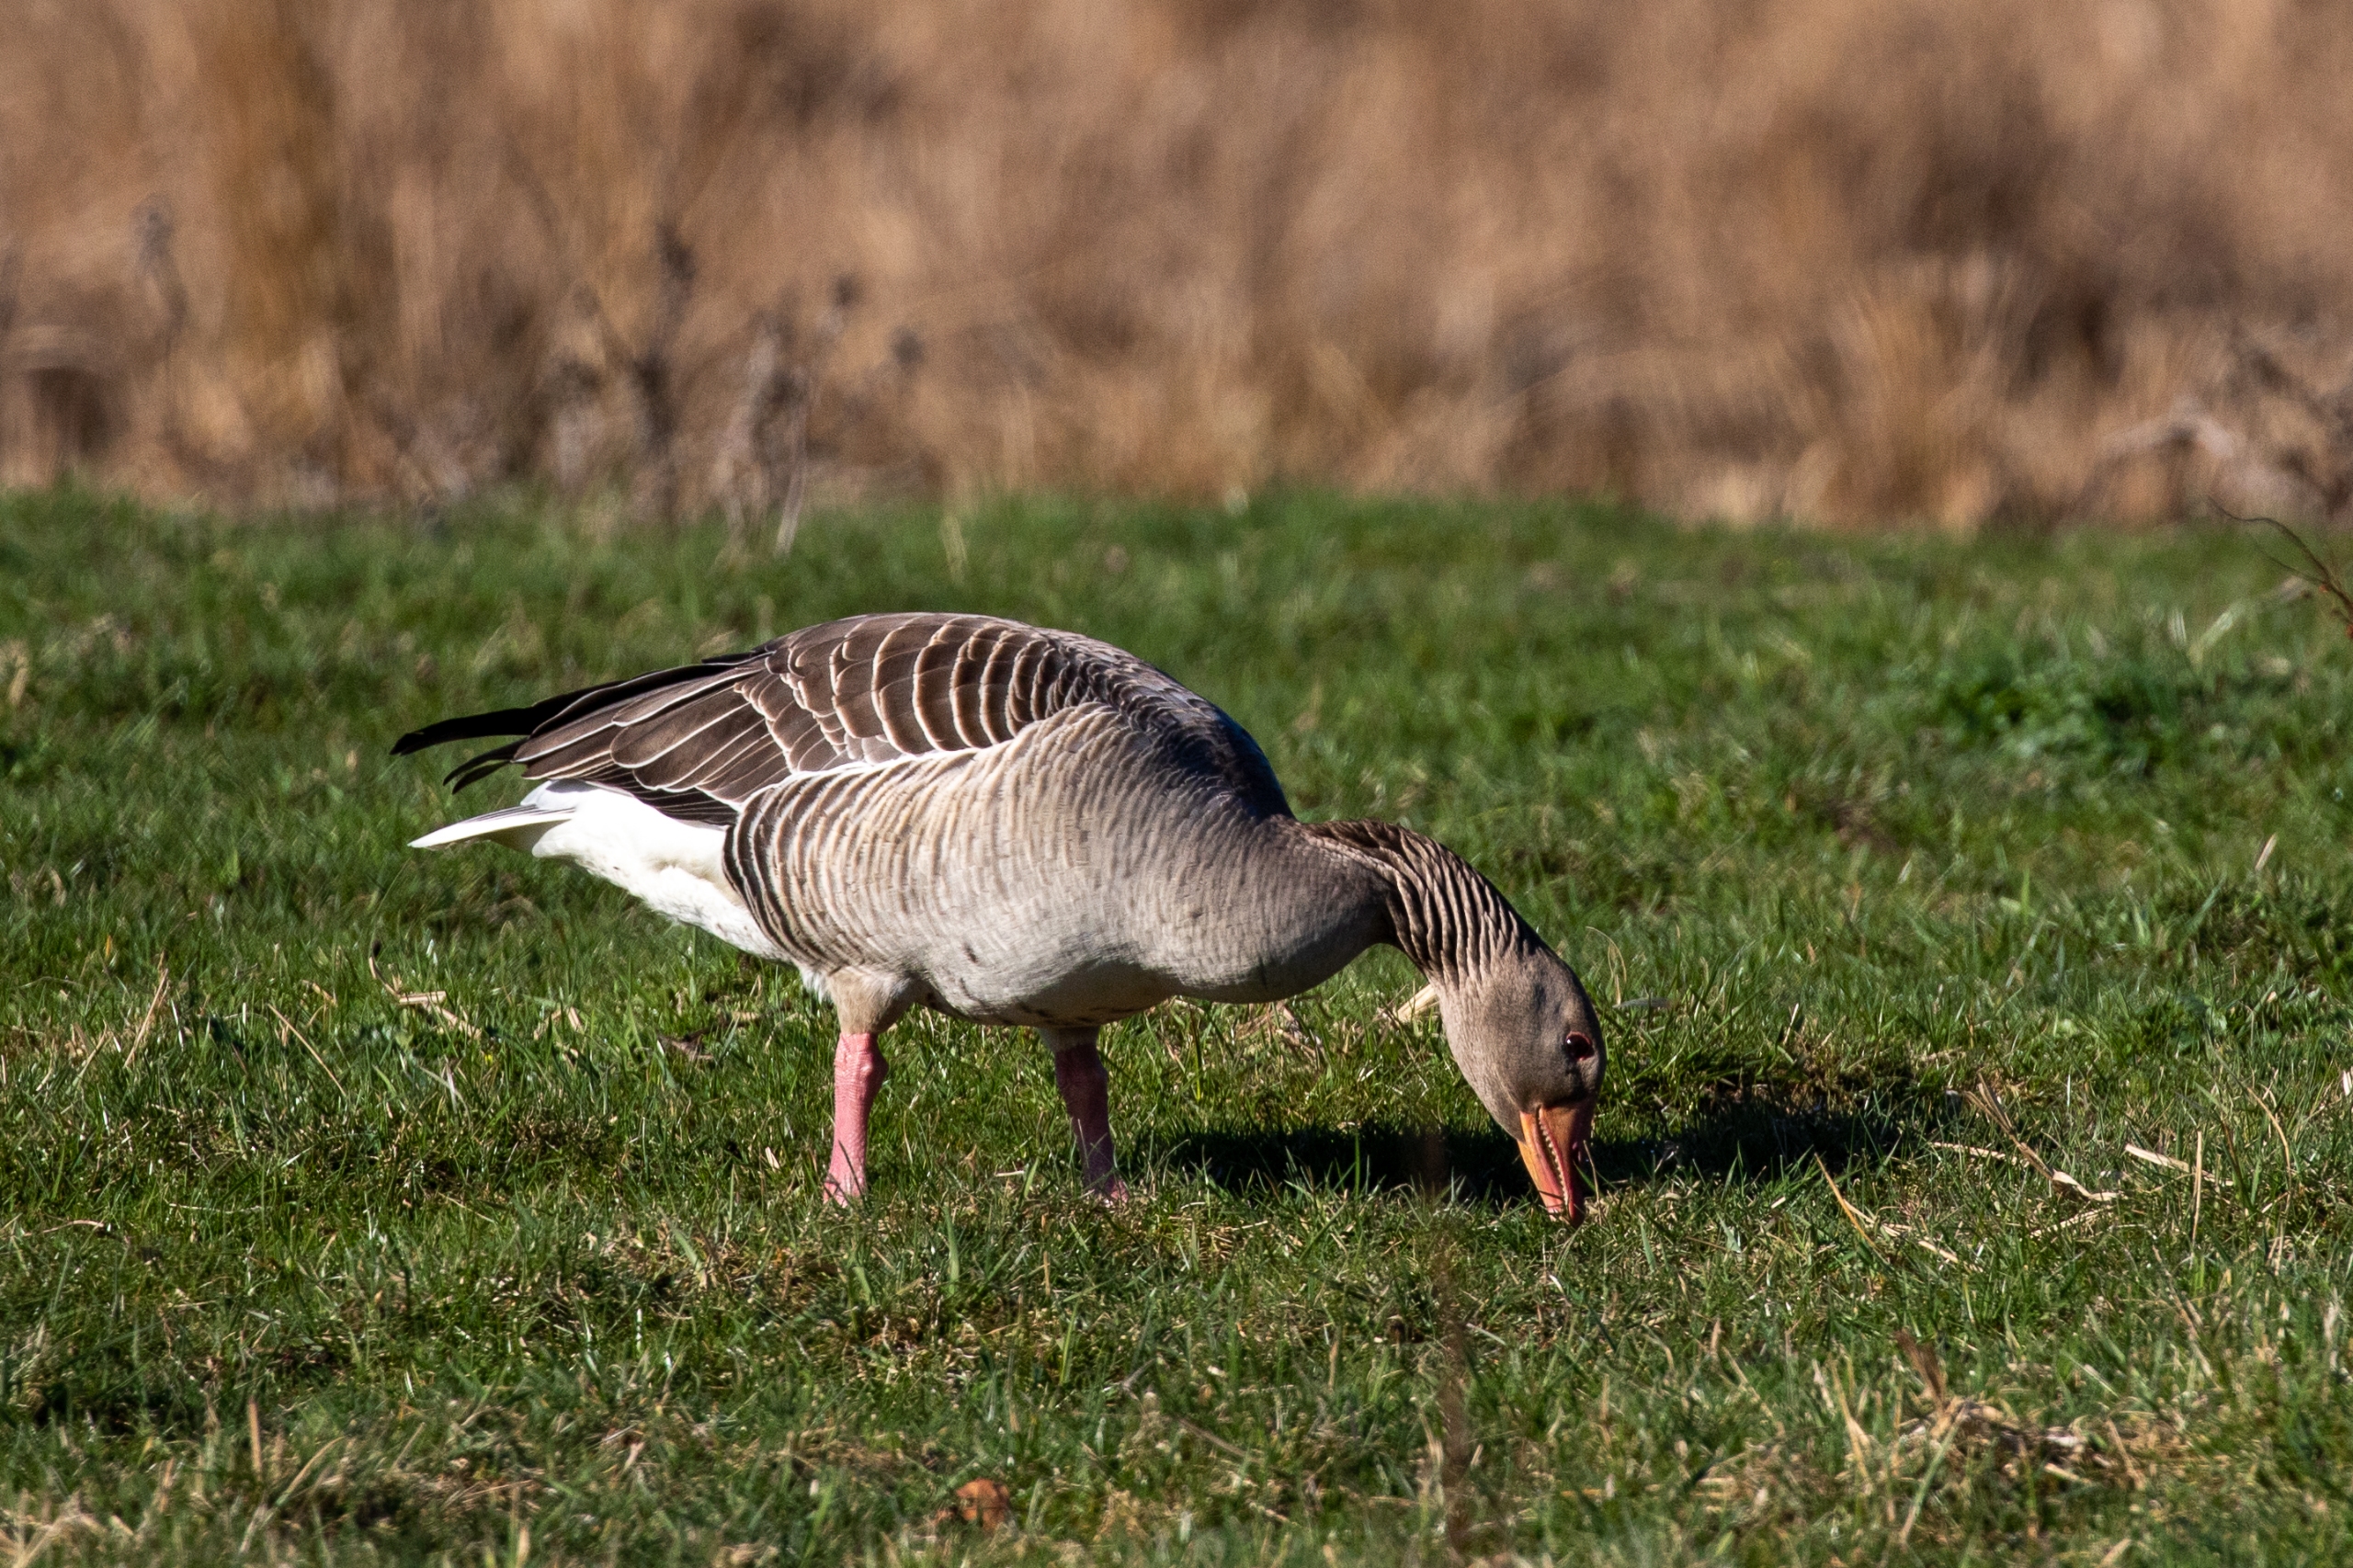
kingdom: Animalia
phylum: Chordata
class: Aves
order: Anseriformes
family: Anatidae
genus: Anser
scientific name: Anser anser
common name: Grågås
